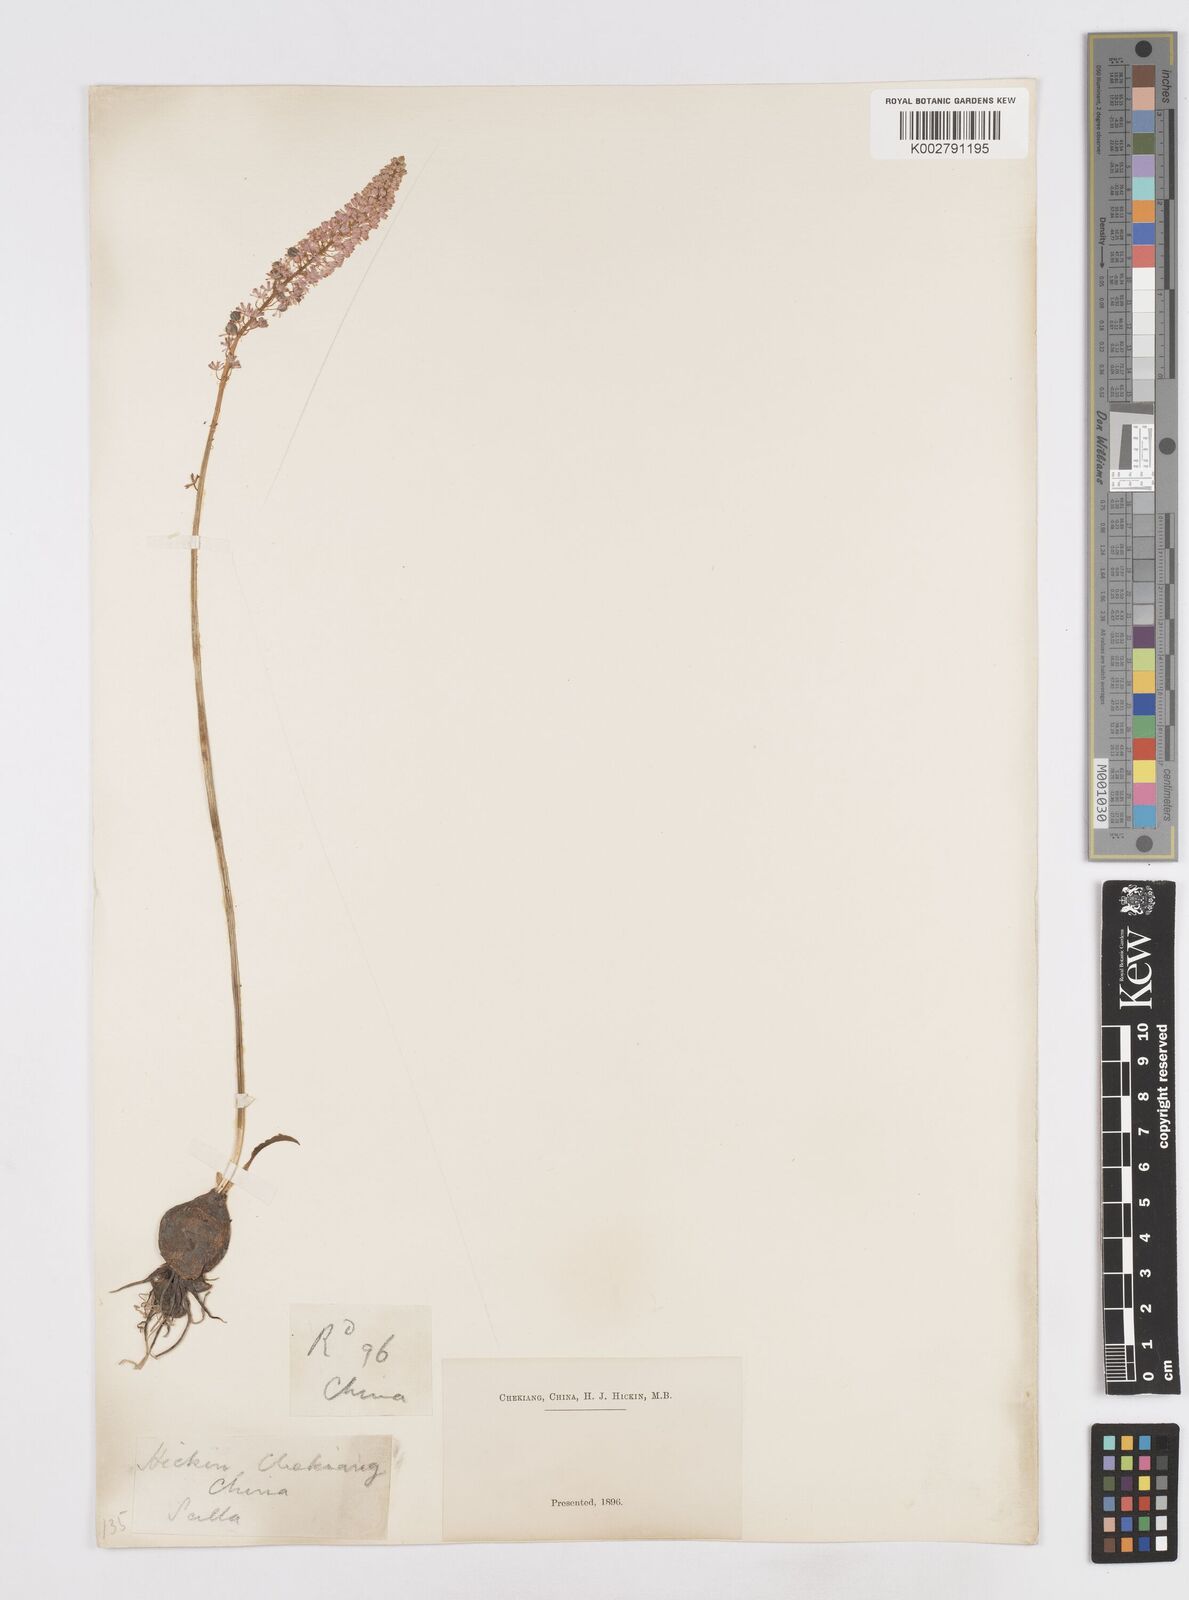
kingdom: Plantae
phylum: Tracheophyta
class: Liliopsida
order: Asparagales
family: Asparagaceae
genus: Barnardia
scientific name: Barnardia japonica
